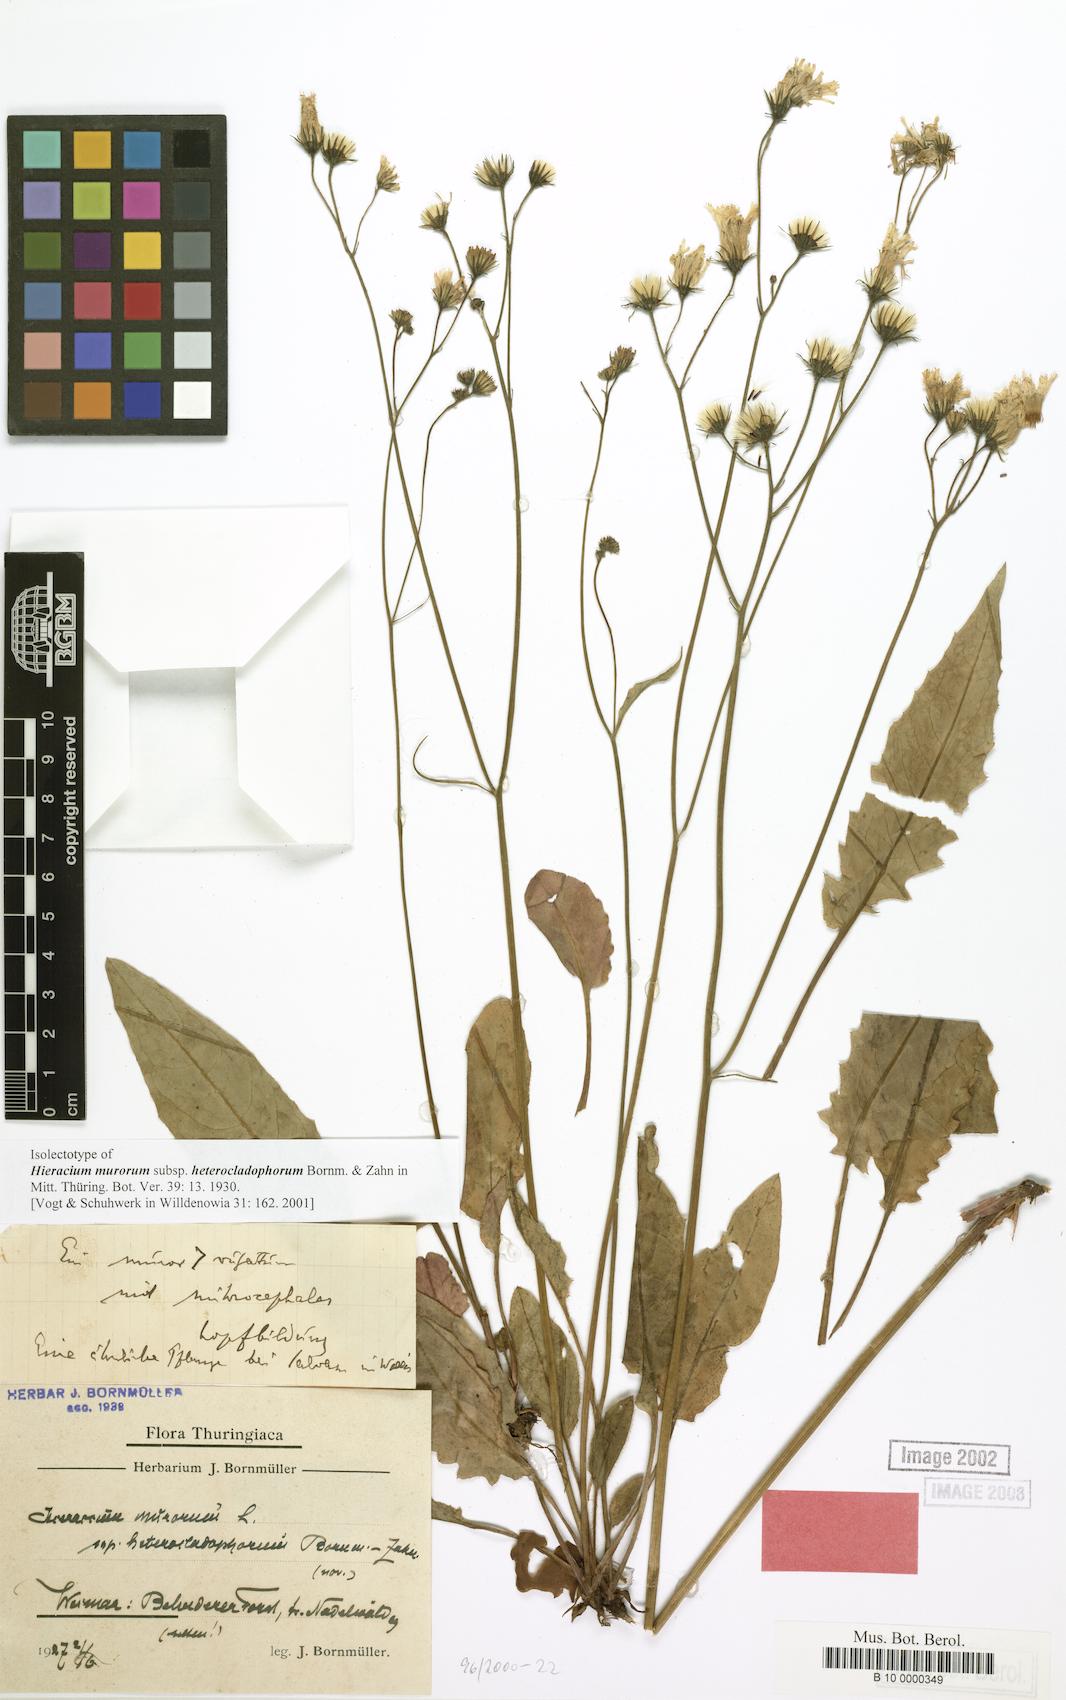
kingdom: Plantae
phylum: Tracheophyta
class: Magnoliopsida
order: Asterales
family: Asteraceae
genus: Hieracium
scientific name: Hieracium murorum
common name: Wall hawkweed
